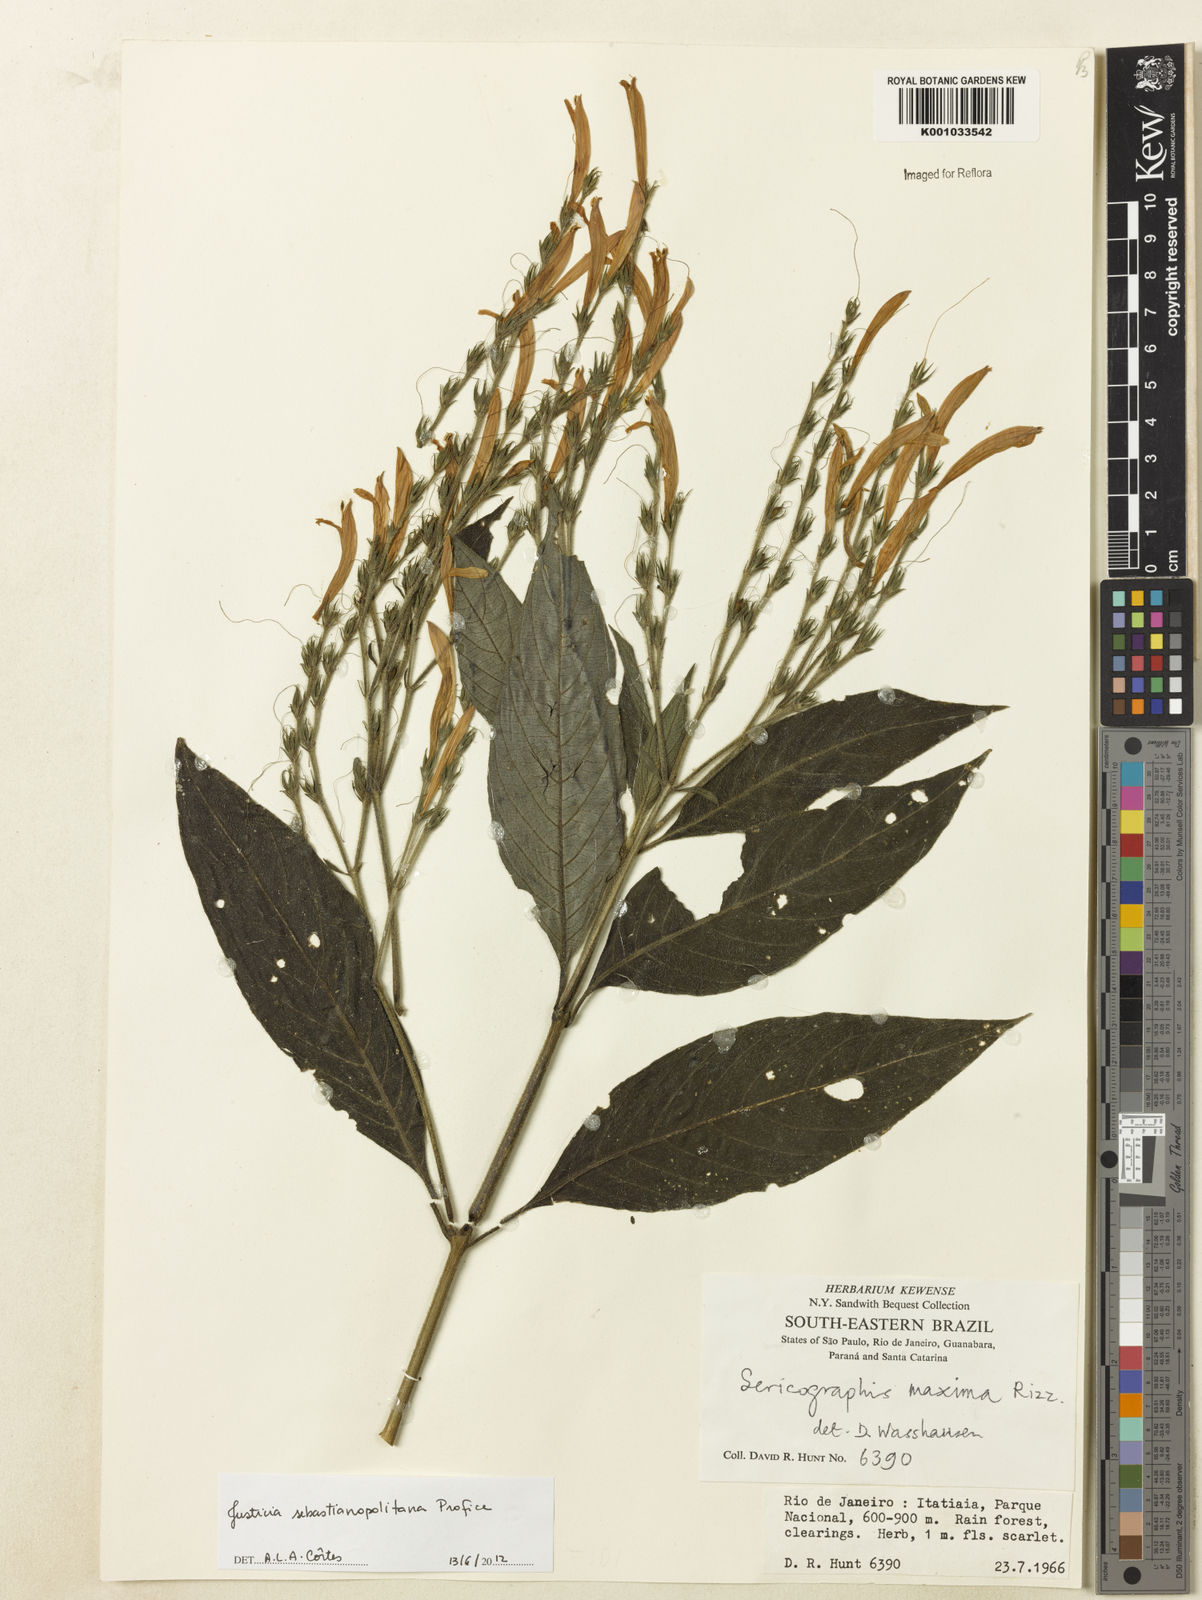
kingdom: Plantae
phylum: Tracheophyta
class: Magnoliopsida
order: Lamiales
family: Acanthaceae
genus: Justicia
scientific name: Justicia sebastianopolitanae
